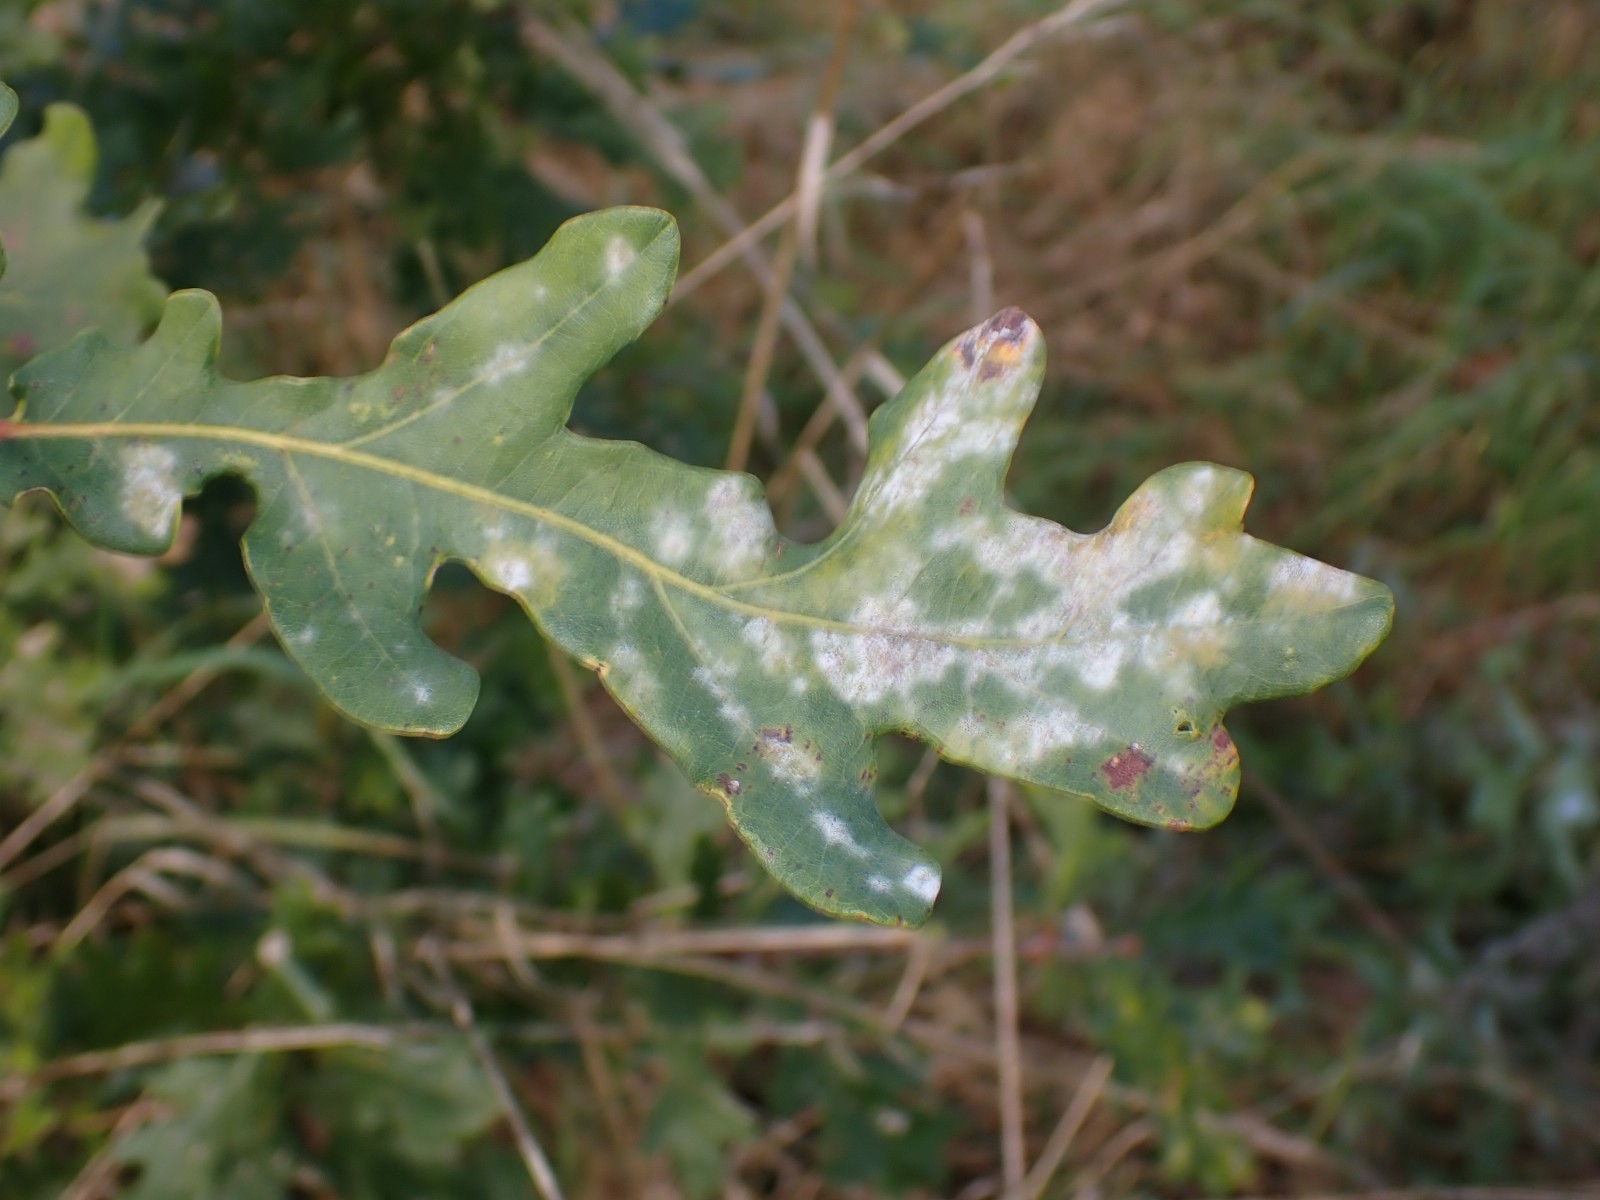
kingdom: Fungi
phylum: Ascomycota
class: Leotiomycetes
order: Helotiales
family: Erysiphaceae
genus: Erysiphe
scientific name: Erysiphe alphitoides
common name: ege-meldug
